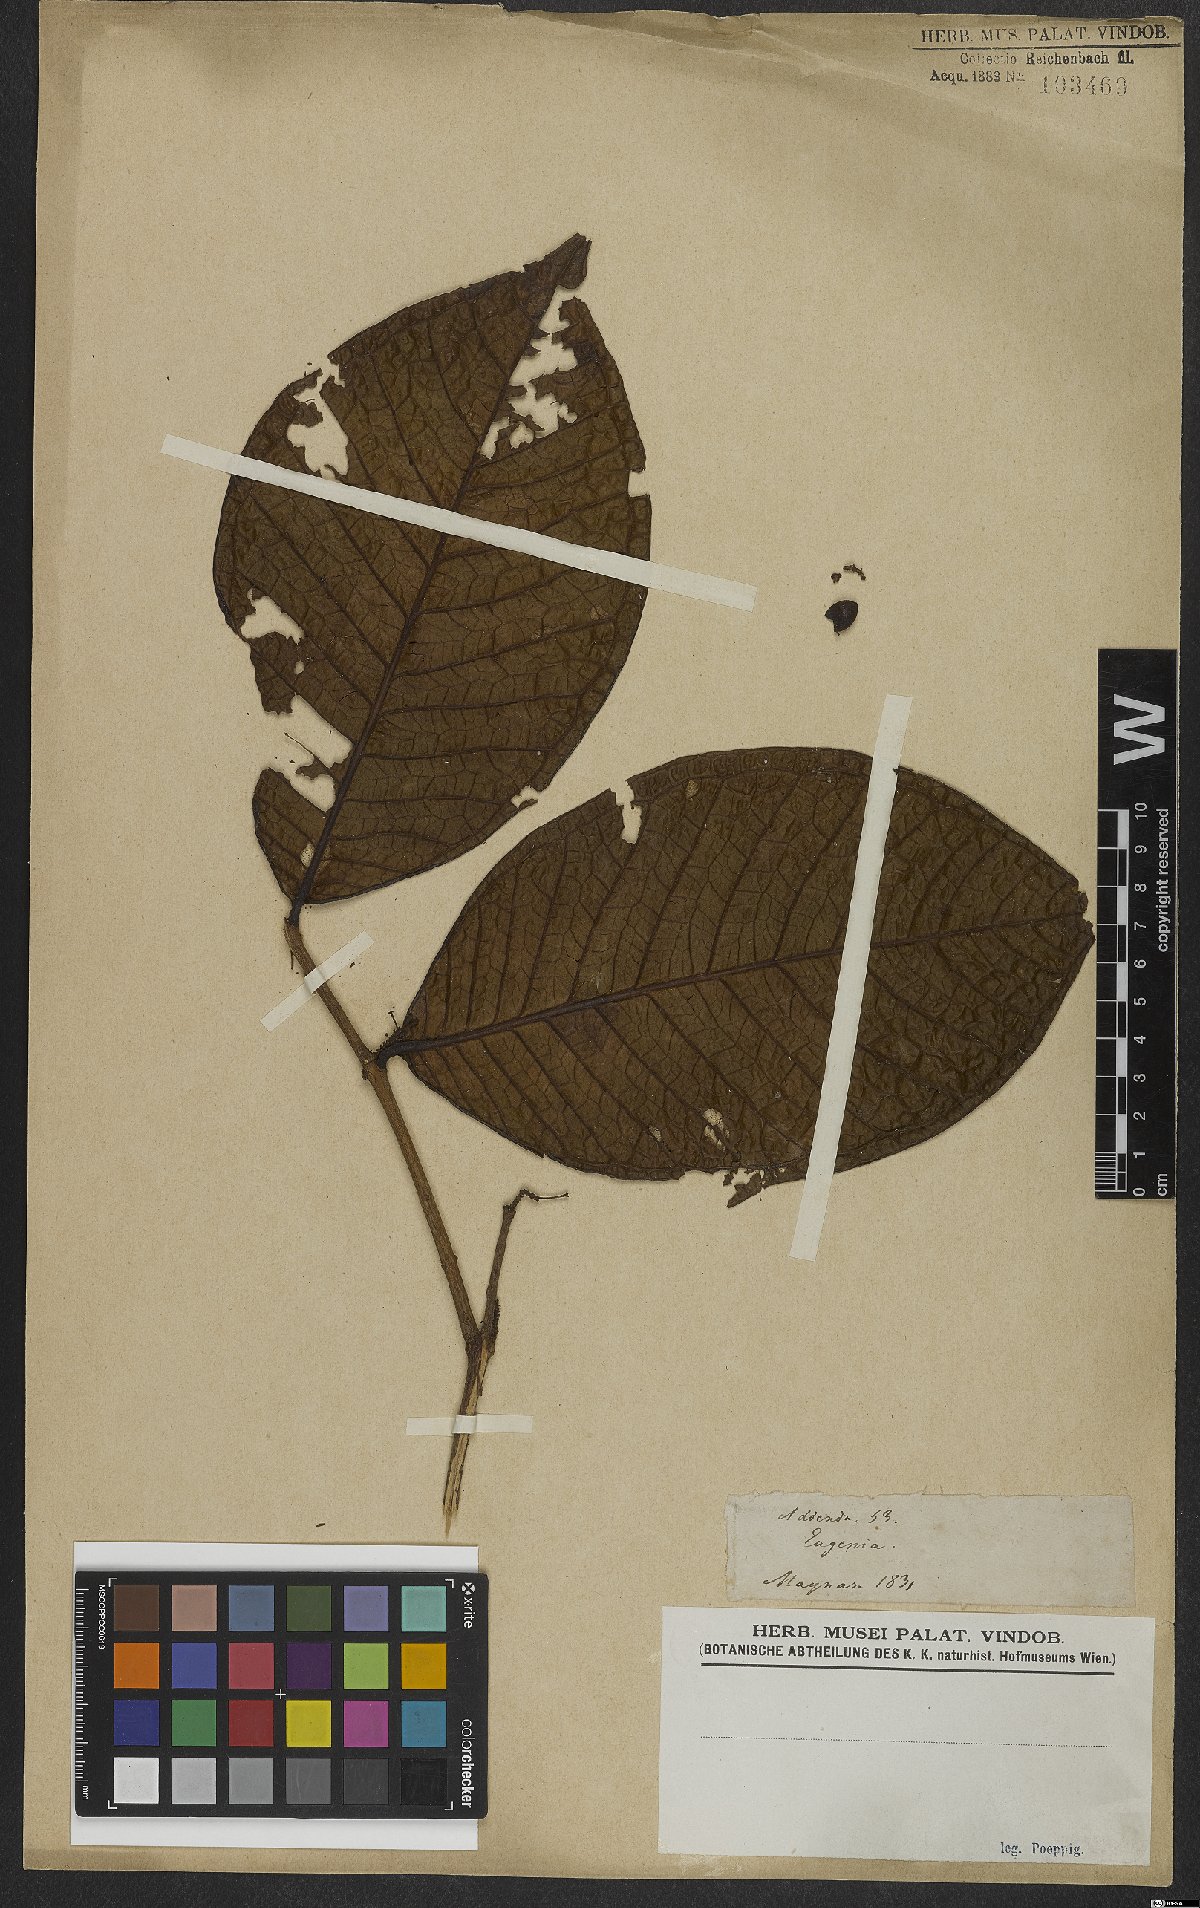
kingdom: Plantae
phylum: Tracheophyta
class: Magnoliopsida
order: Myrtales
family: Myrtaceae
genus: Eugenia
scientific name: Eugenia tetrasticha
